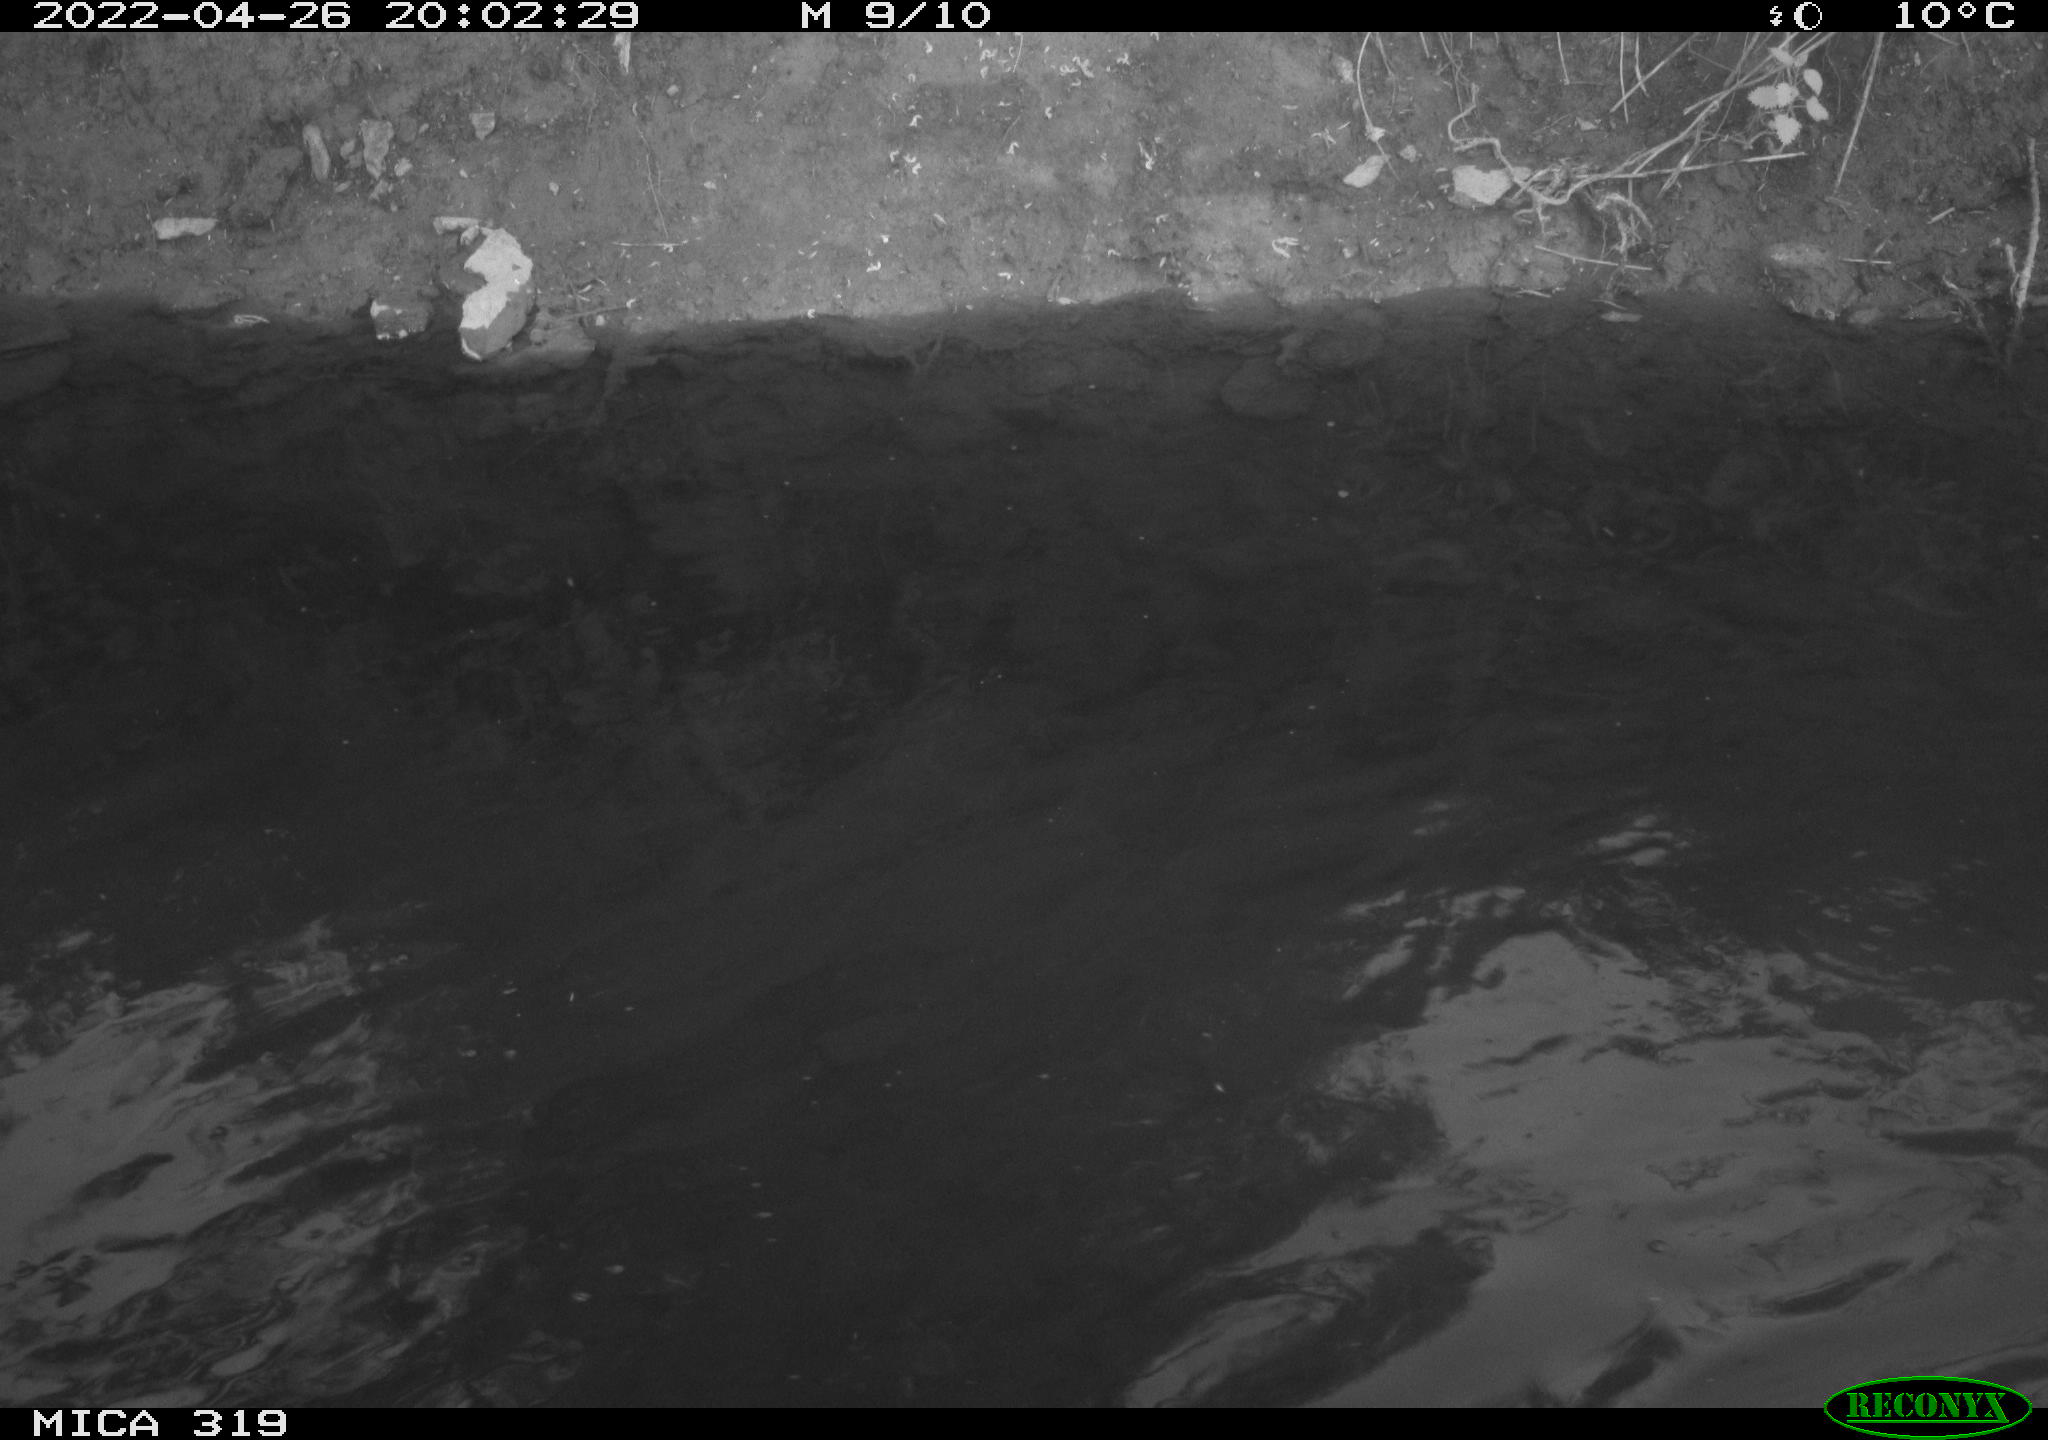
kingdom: Animalia
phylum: Chordata
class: Aves
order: Anseriformes
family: Anatidae
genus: Anas
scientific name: Anas platyrhynchos
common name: Mallard
